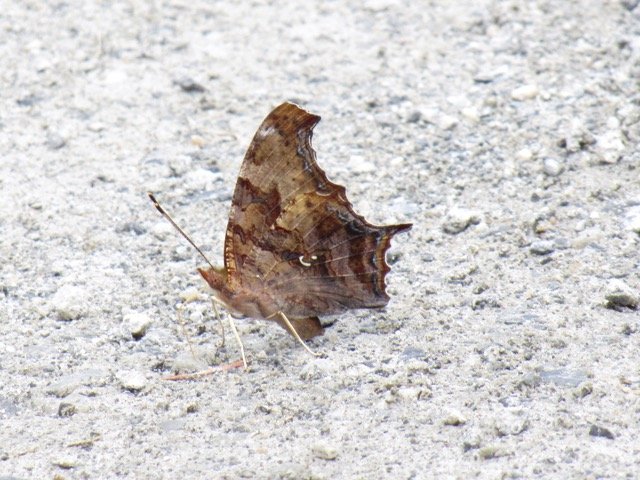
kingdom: Animalia
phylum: Arthropoda
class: Insecta
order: Lepidoptera
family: Nymphalidae
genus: Polygonia
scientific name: Polygonia interrogationis
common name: Question Mark
